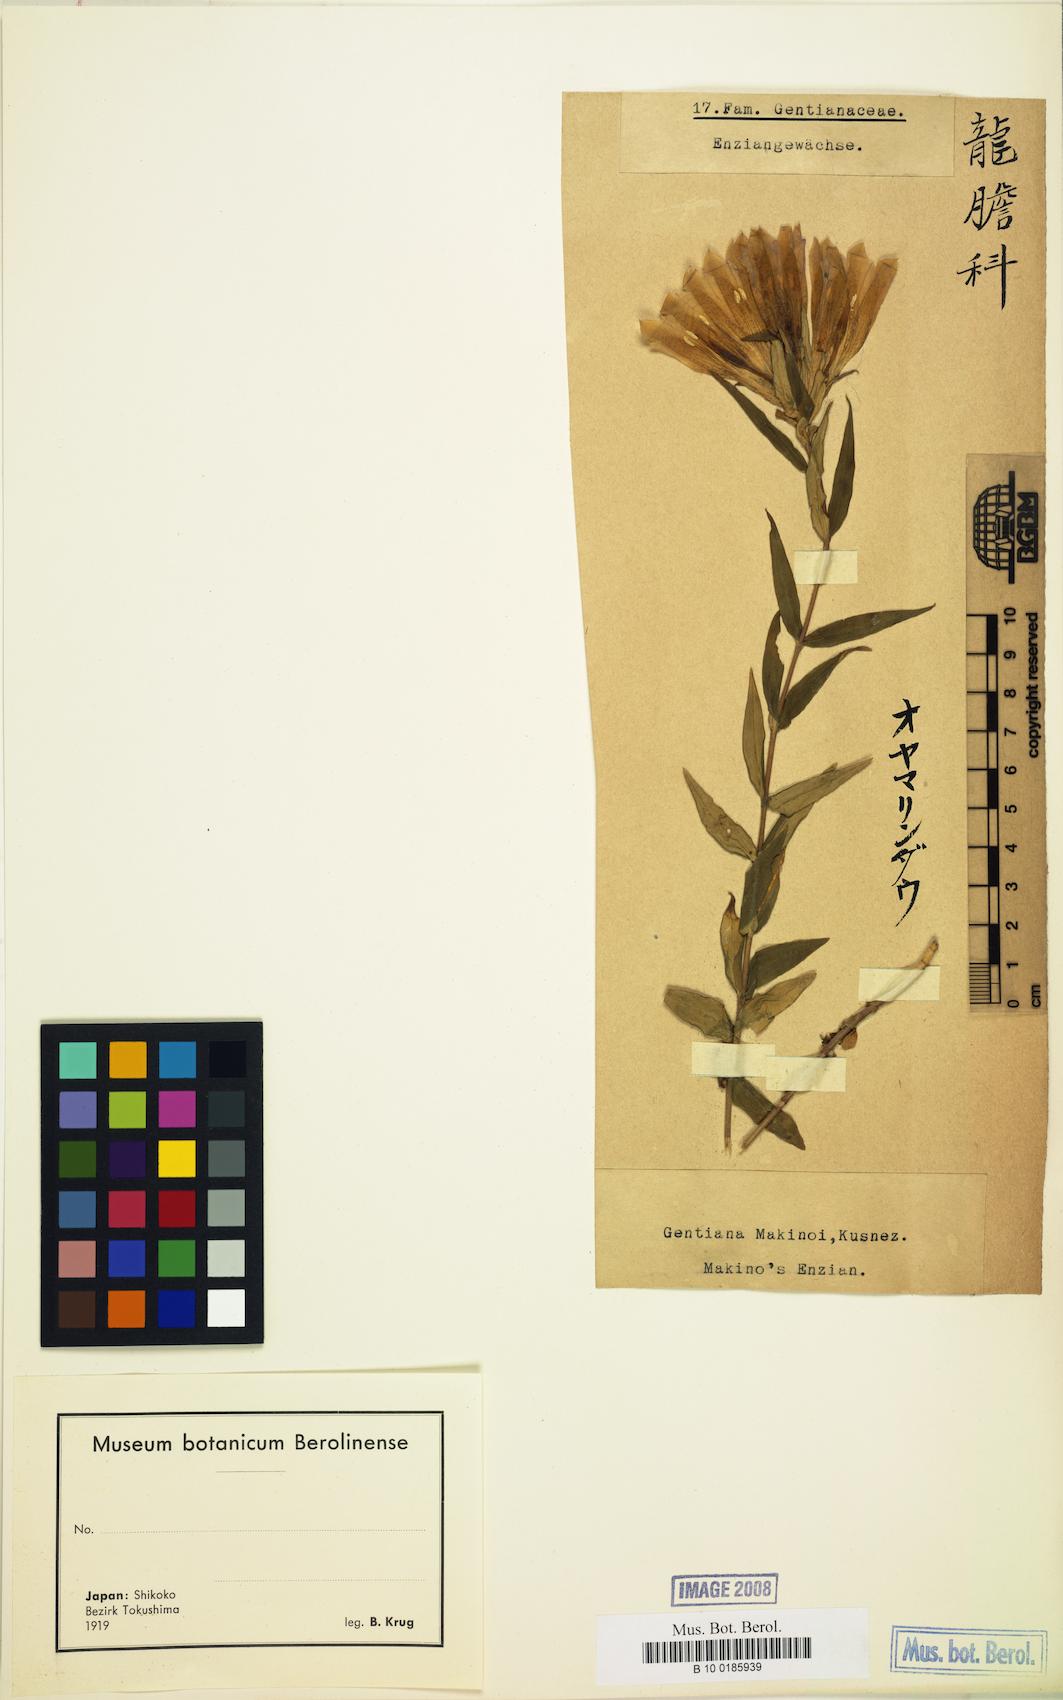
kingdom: Plantae
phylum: Tracheophyta
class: Magnoliopsida
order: Gentianales
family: Gentianaceae
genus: Gentiana
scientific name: Gentiana makinoi
